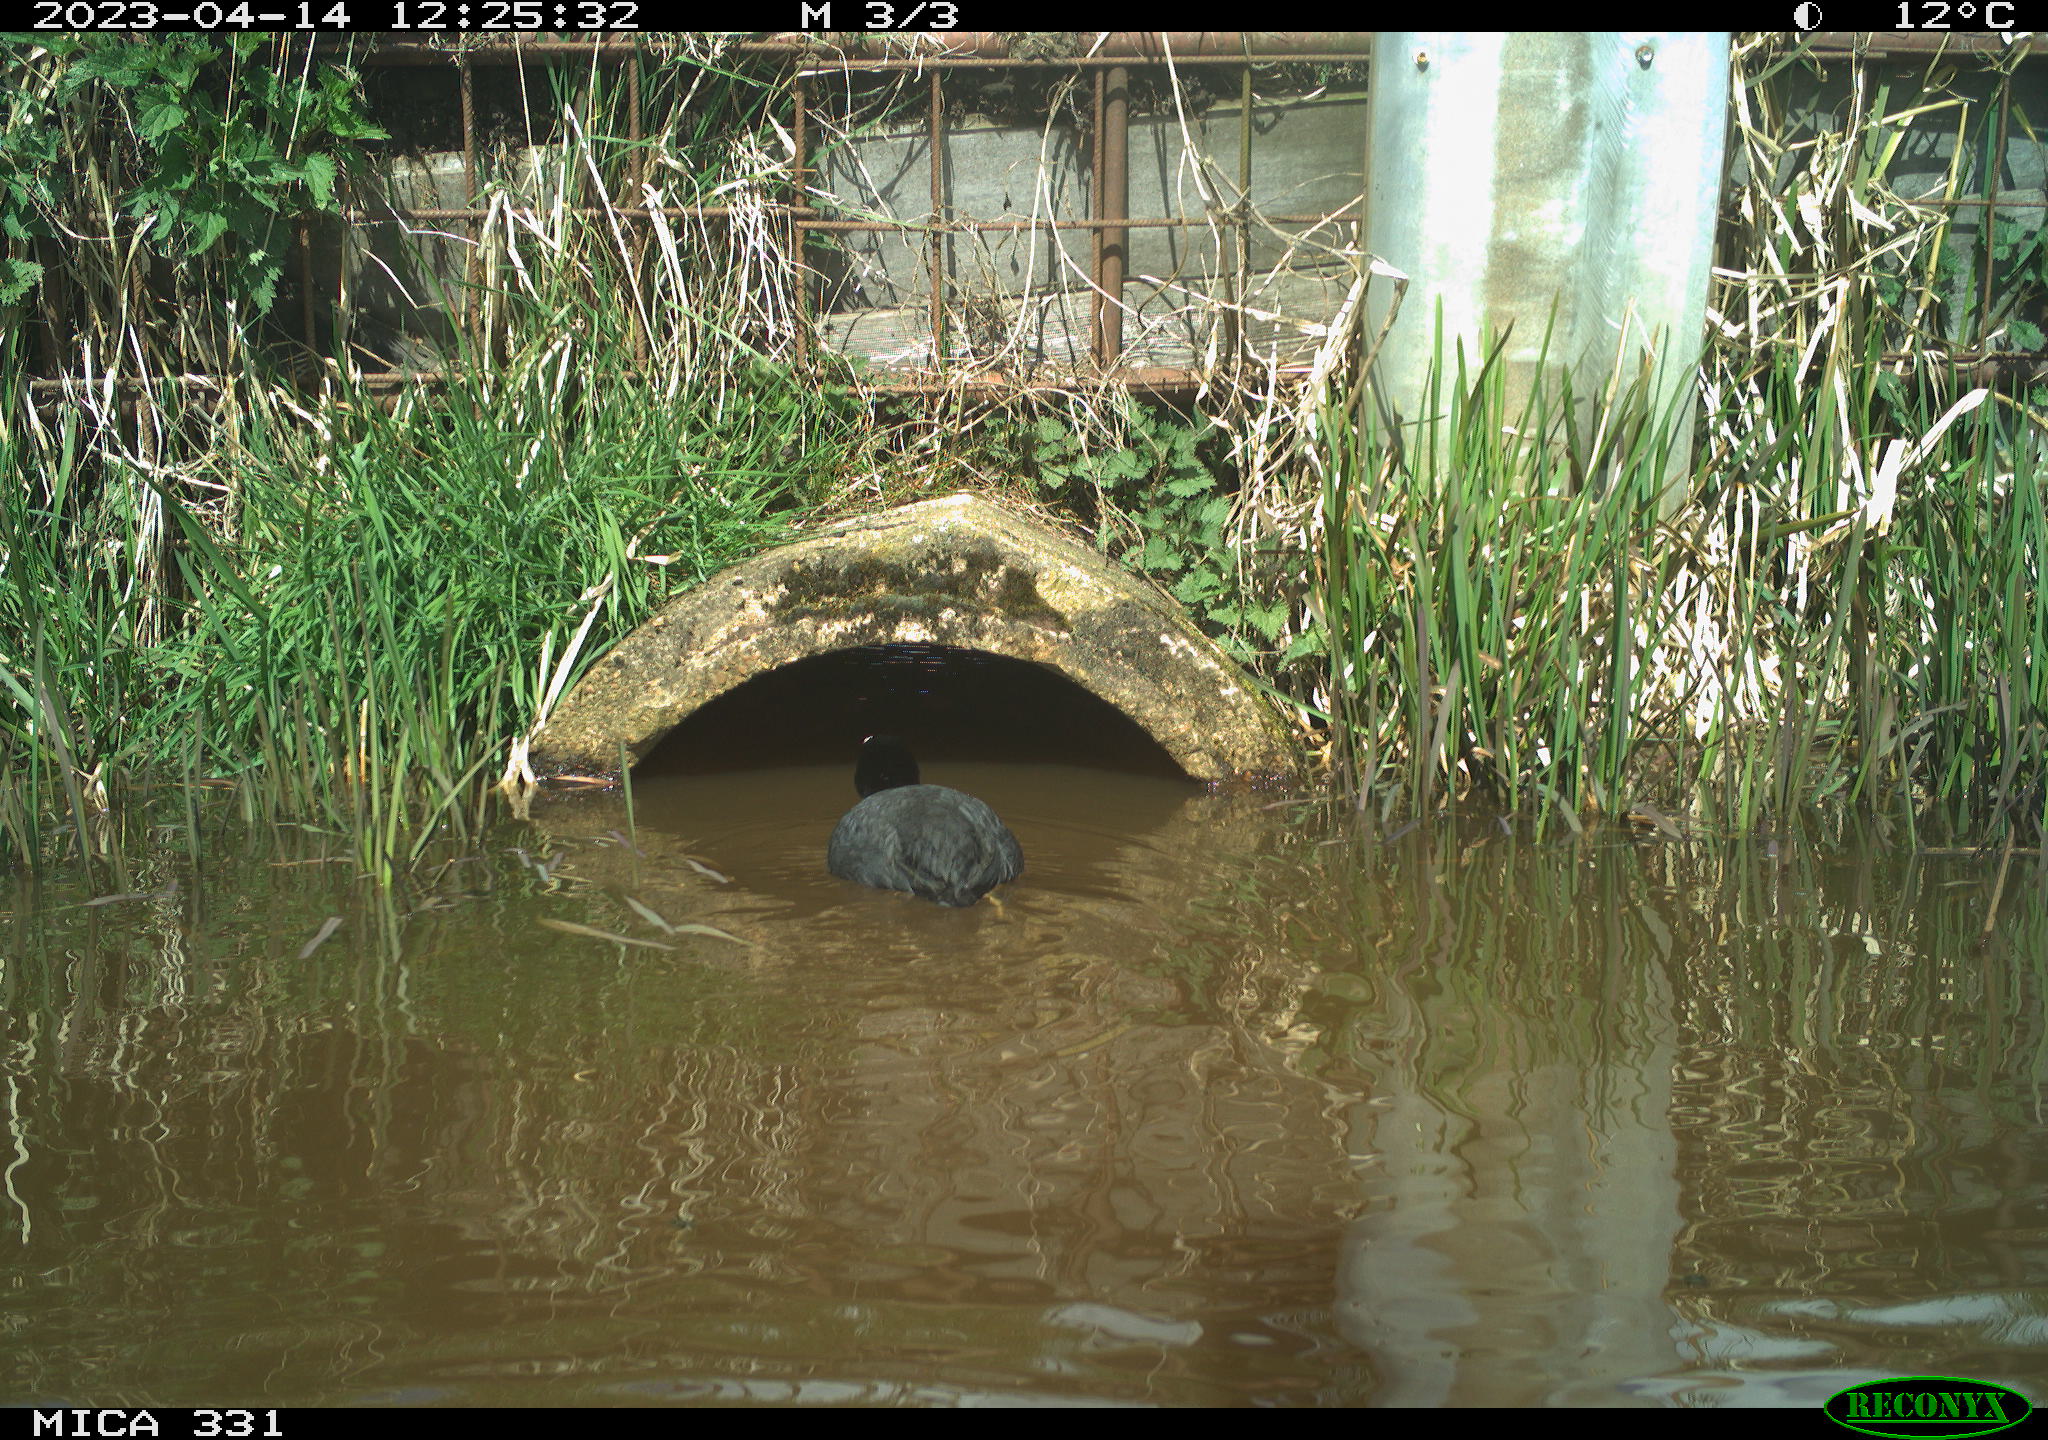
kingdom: Animalia
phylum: Chordata
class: Aves
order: Gruiformes
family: Rallidae
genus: Fulica
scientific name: Fulica atra
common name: Eurasian coot
